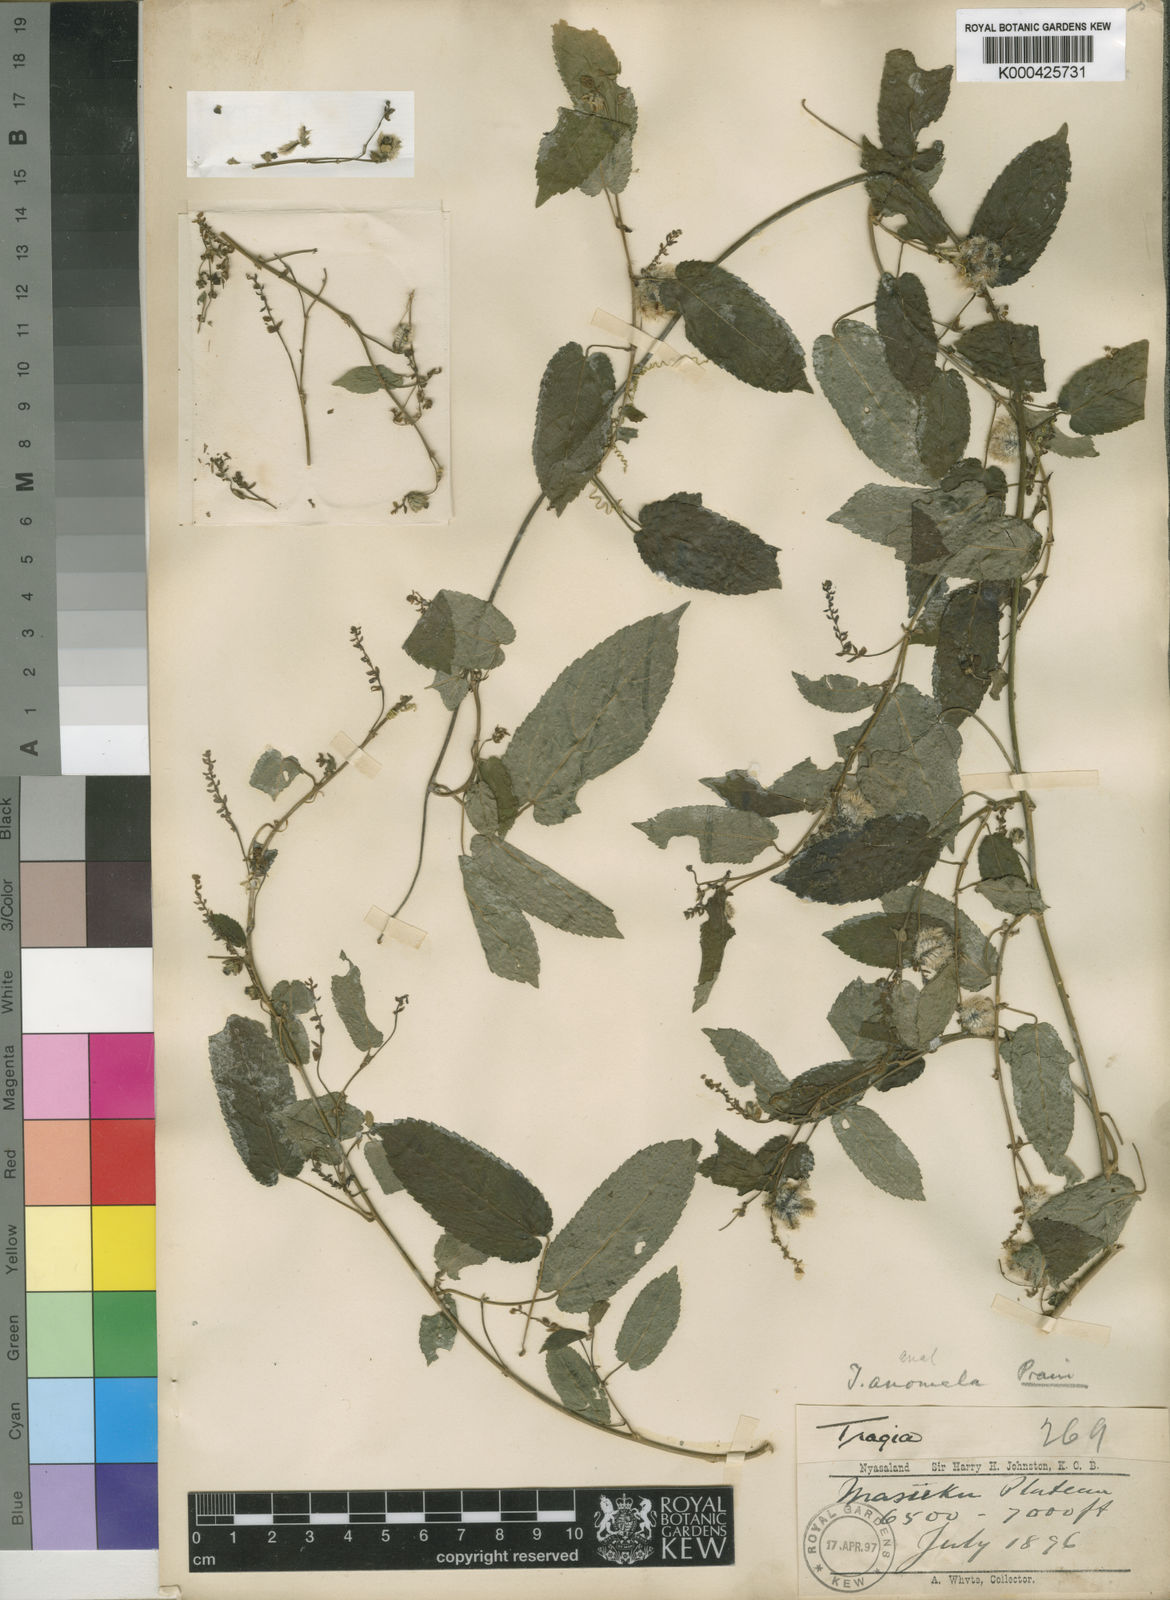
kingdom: Plantae
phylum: Tracheophyta
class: Magnoliopsida
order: Malpighiales
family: Euphorbiaceae
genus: Tragiella
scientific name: Tragiella anomala
